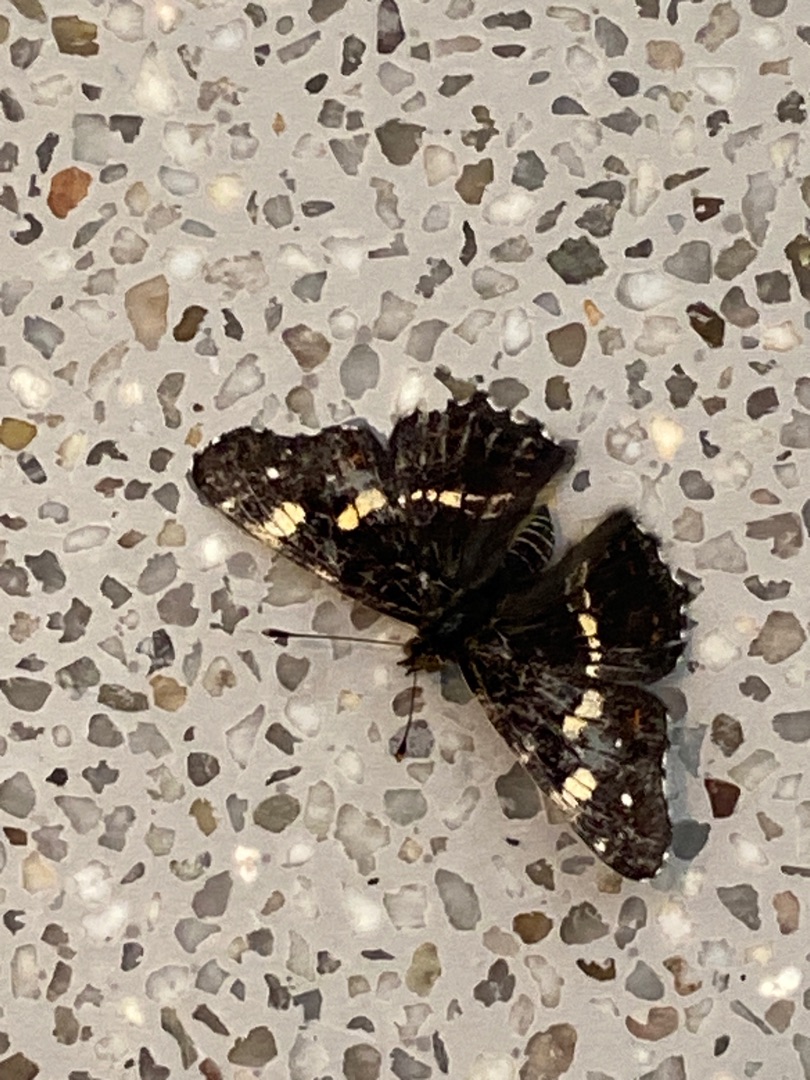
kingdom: Animalia
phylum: Arthropoda
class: Insecta
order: Lepidoptera
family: Nymphalidae
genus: Araschnia
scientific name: Araschnia levana
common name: Nældesommerfugl
